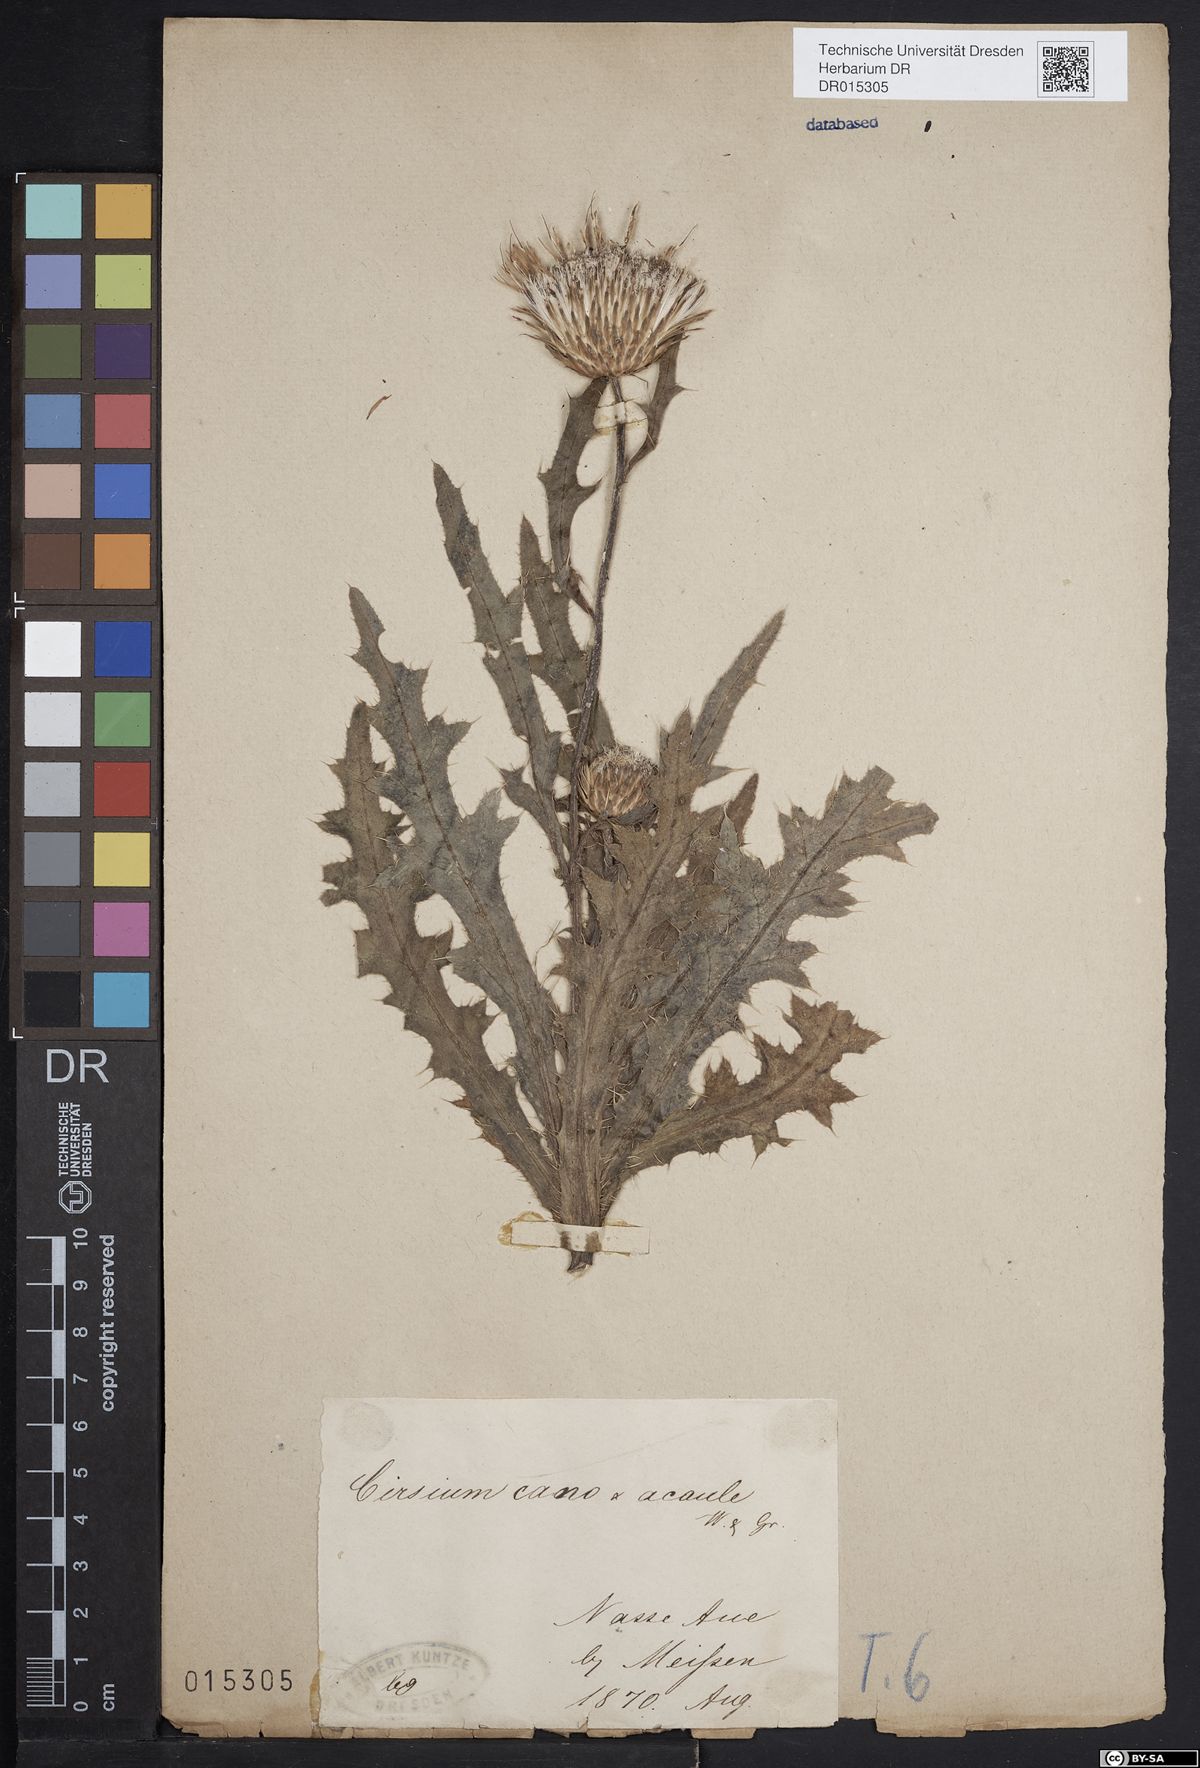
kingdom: Plantae
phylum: Tracheophyta
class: Magnoliopsida
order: Asterales
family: Asteraceae
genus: Cirsium
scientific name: Cirsium winklerianum
